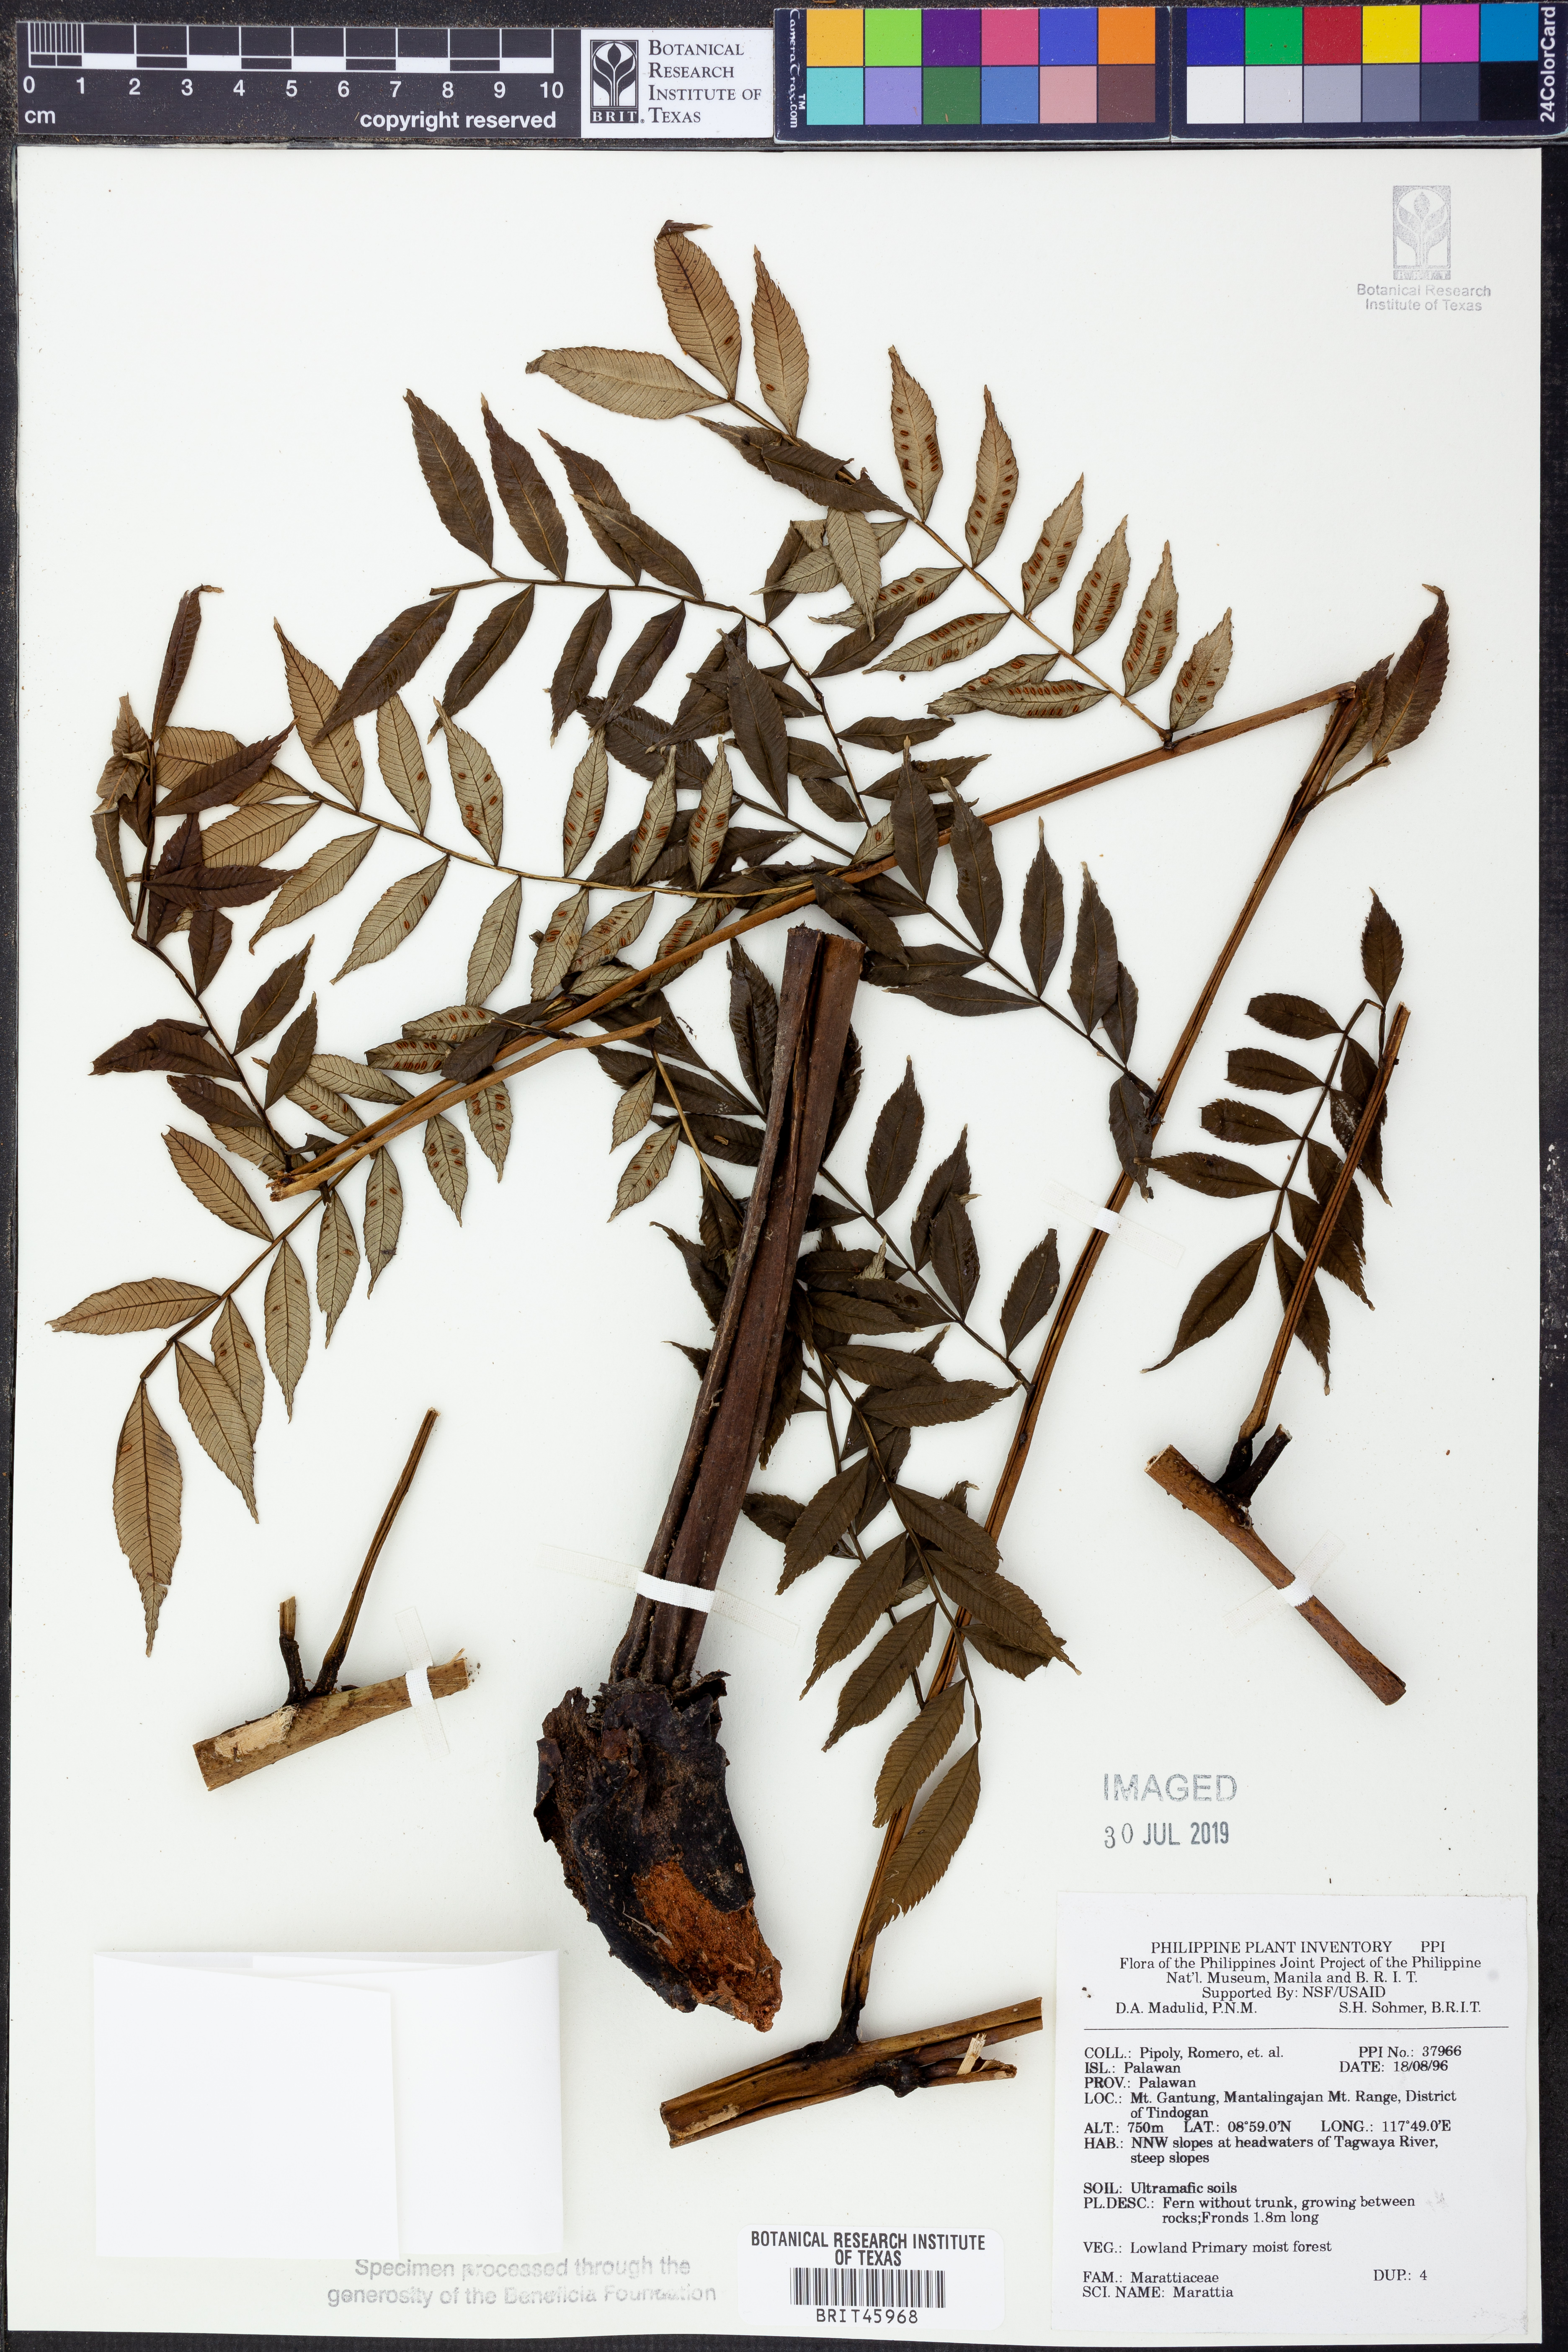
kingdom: Plantae
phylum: Tracheophyta
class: Polypodiopsida
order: Marattiales
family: Marattiaceae
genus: Marattia
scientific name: Marattia
